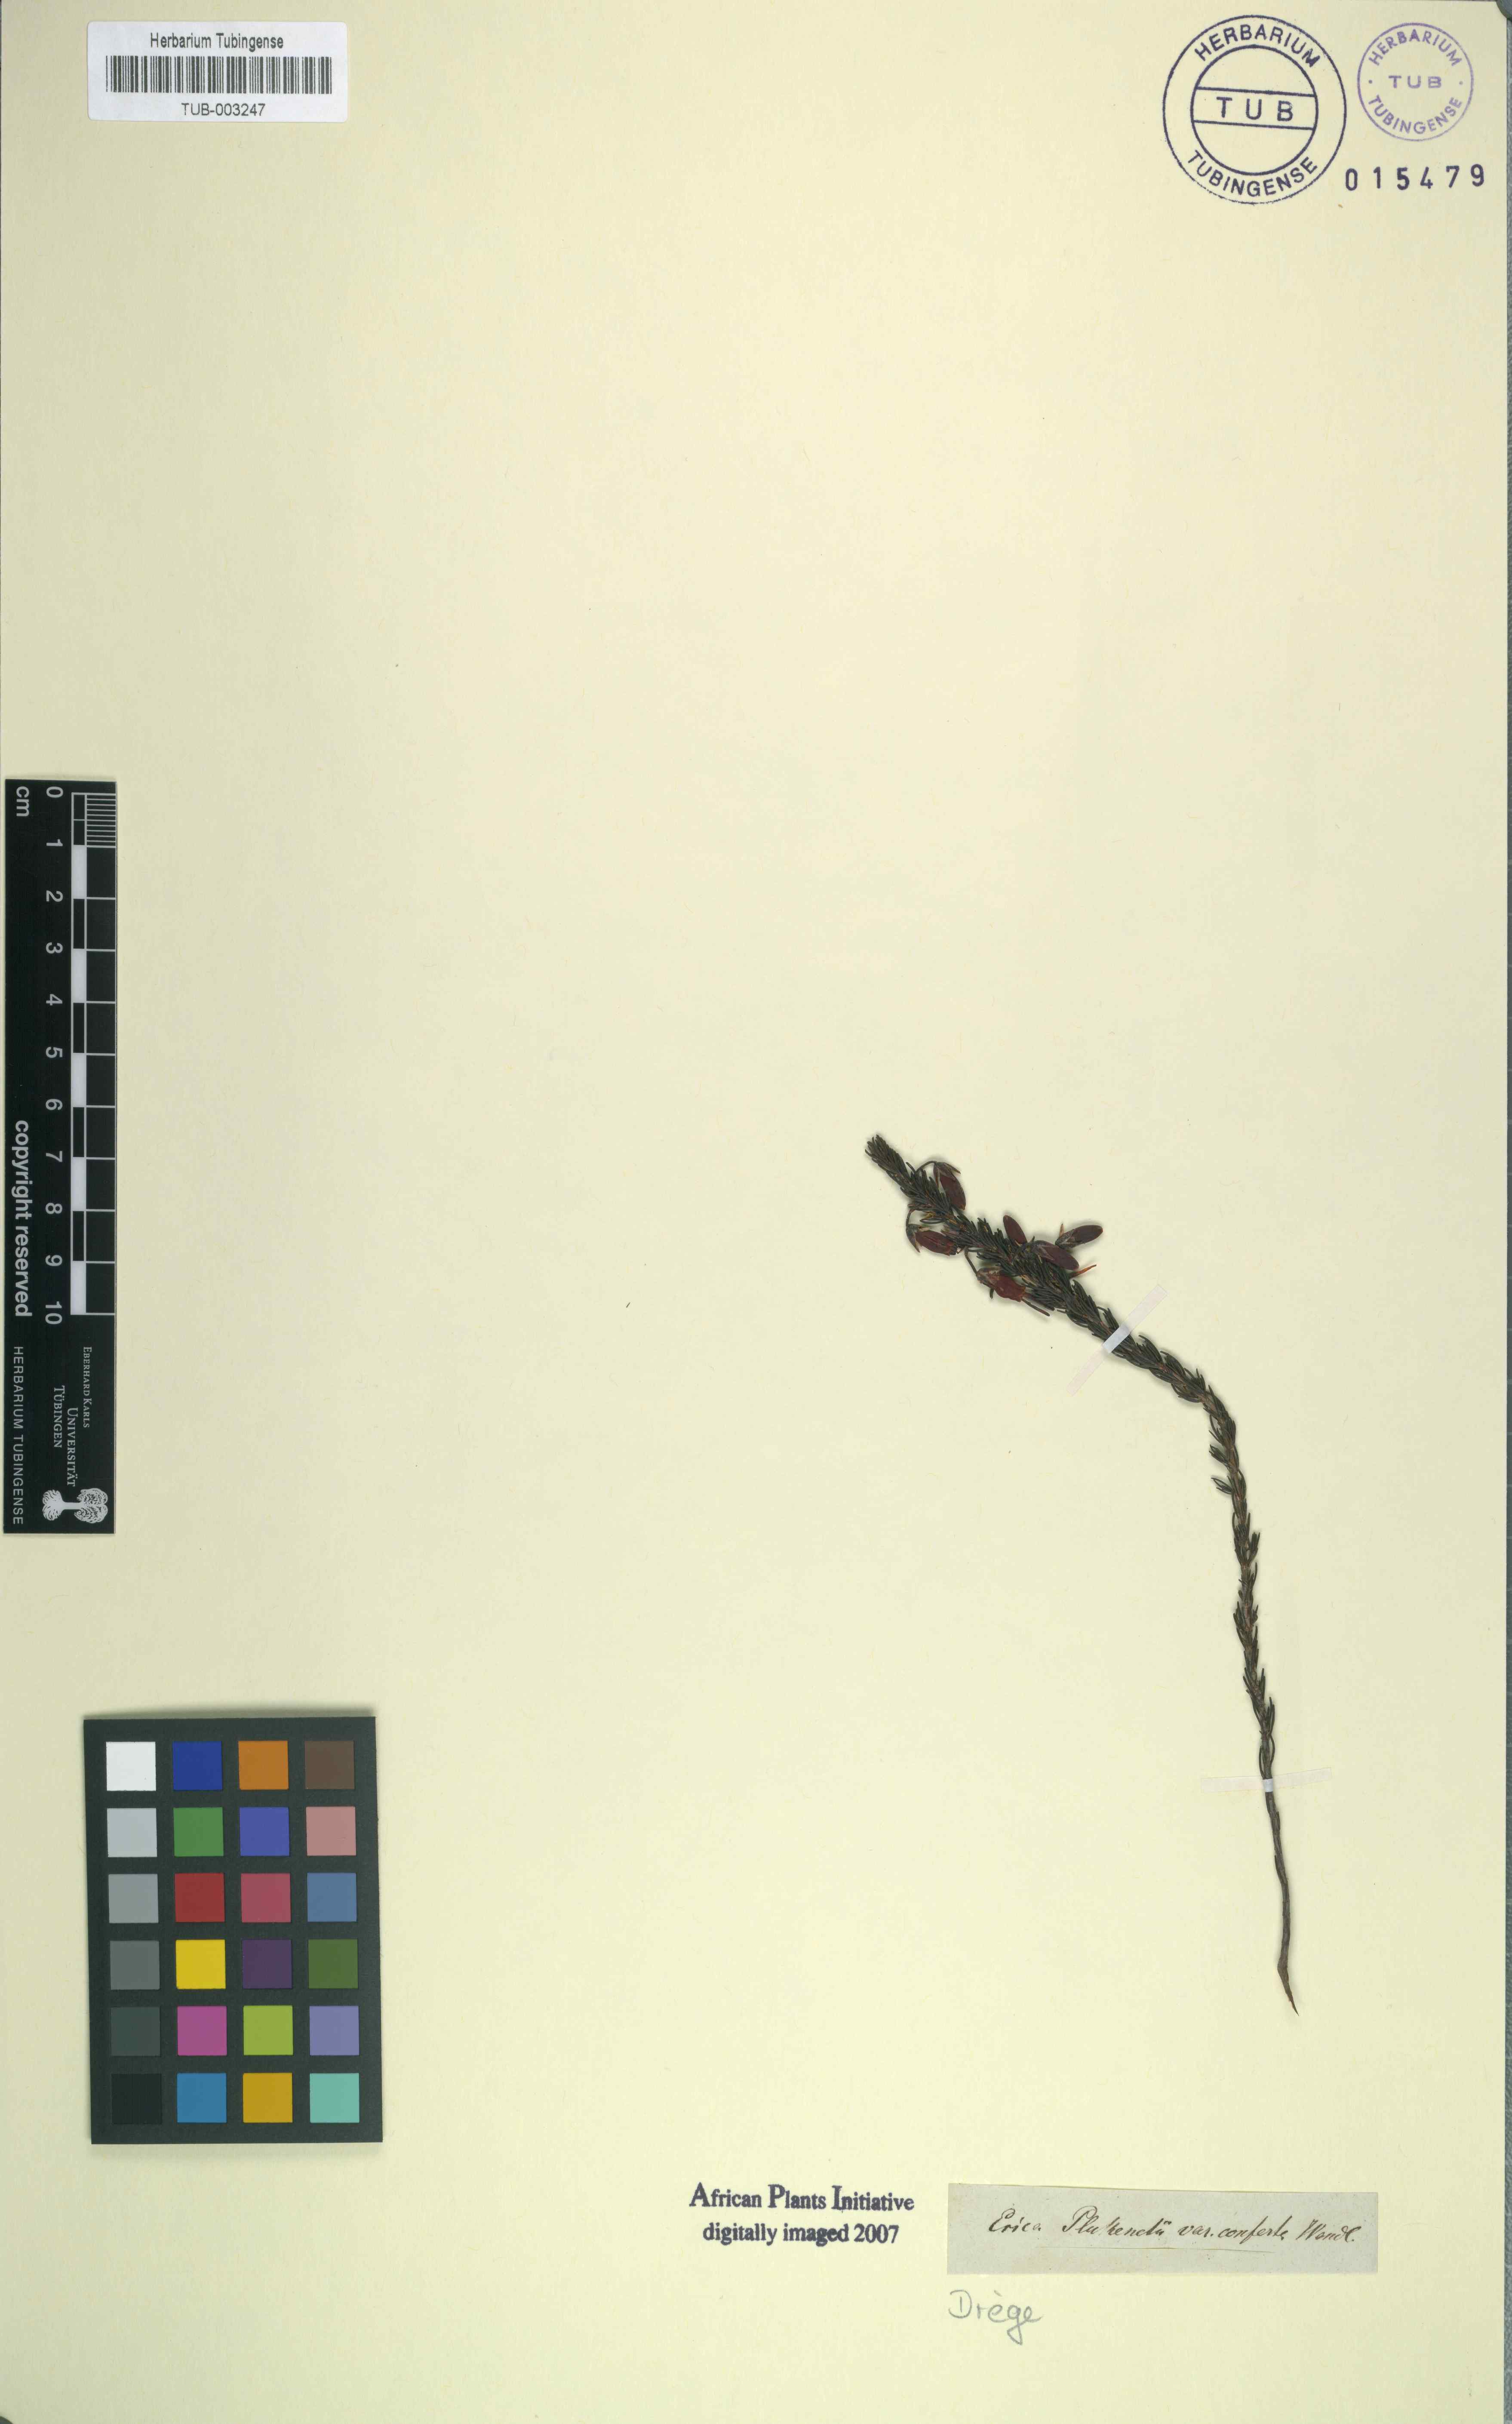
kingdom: Plantae
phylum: Tracheophyta
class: Magnoliopsida
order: Ericales
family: Ericaceae
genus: Erica
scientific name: Erica coccinea
